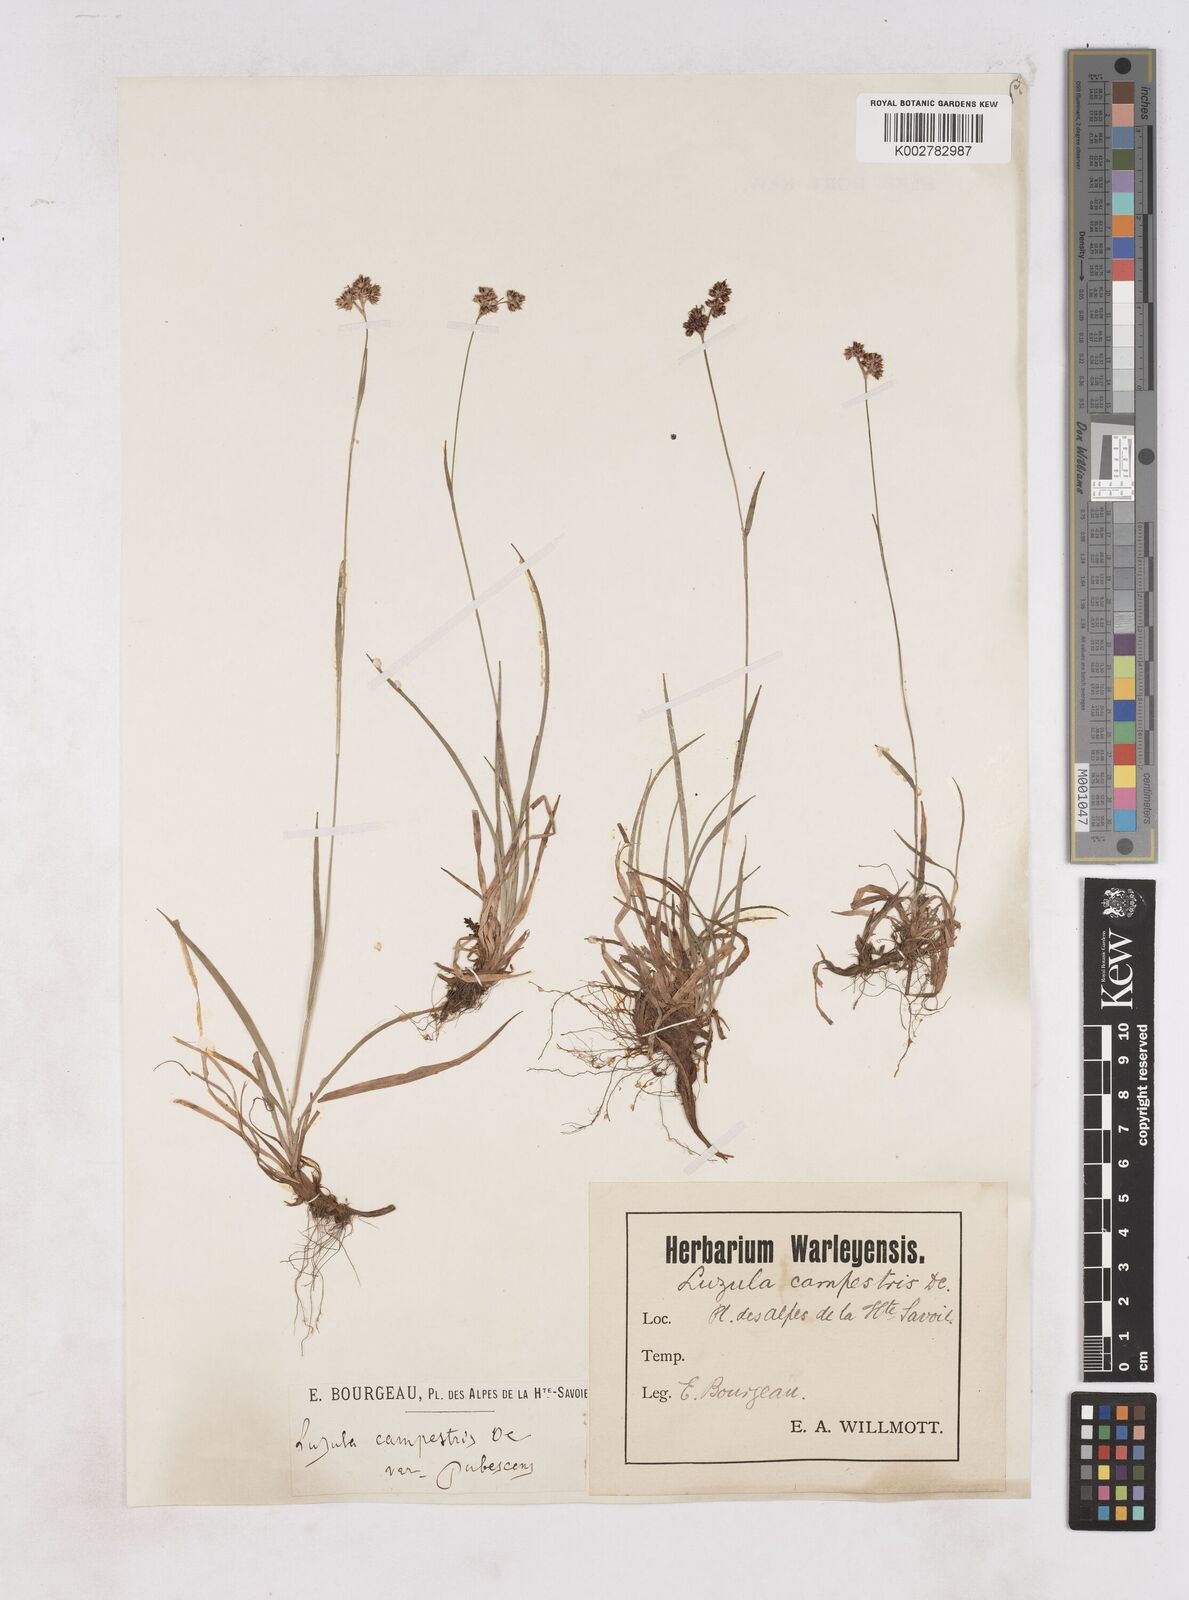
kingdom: Plantae
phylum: Tracheophyta
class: Liliopsida
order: Poales
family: Juncaceae
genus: Luzula
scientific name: Luzula campestris
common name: Field wood-rush
